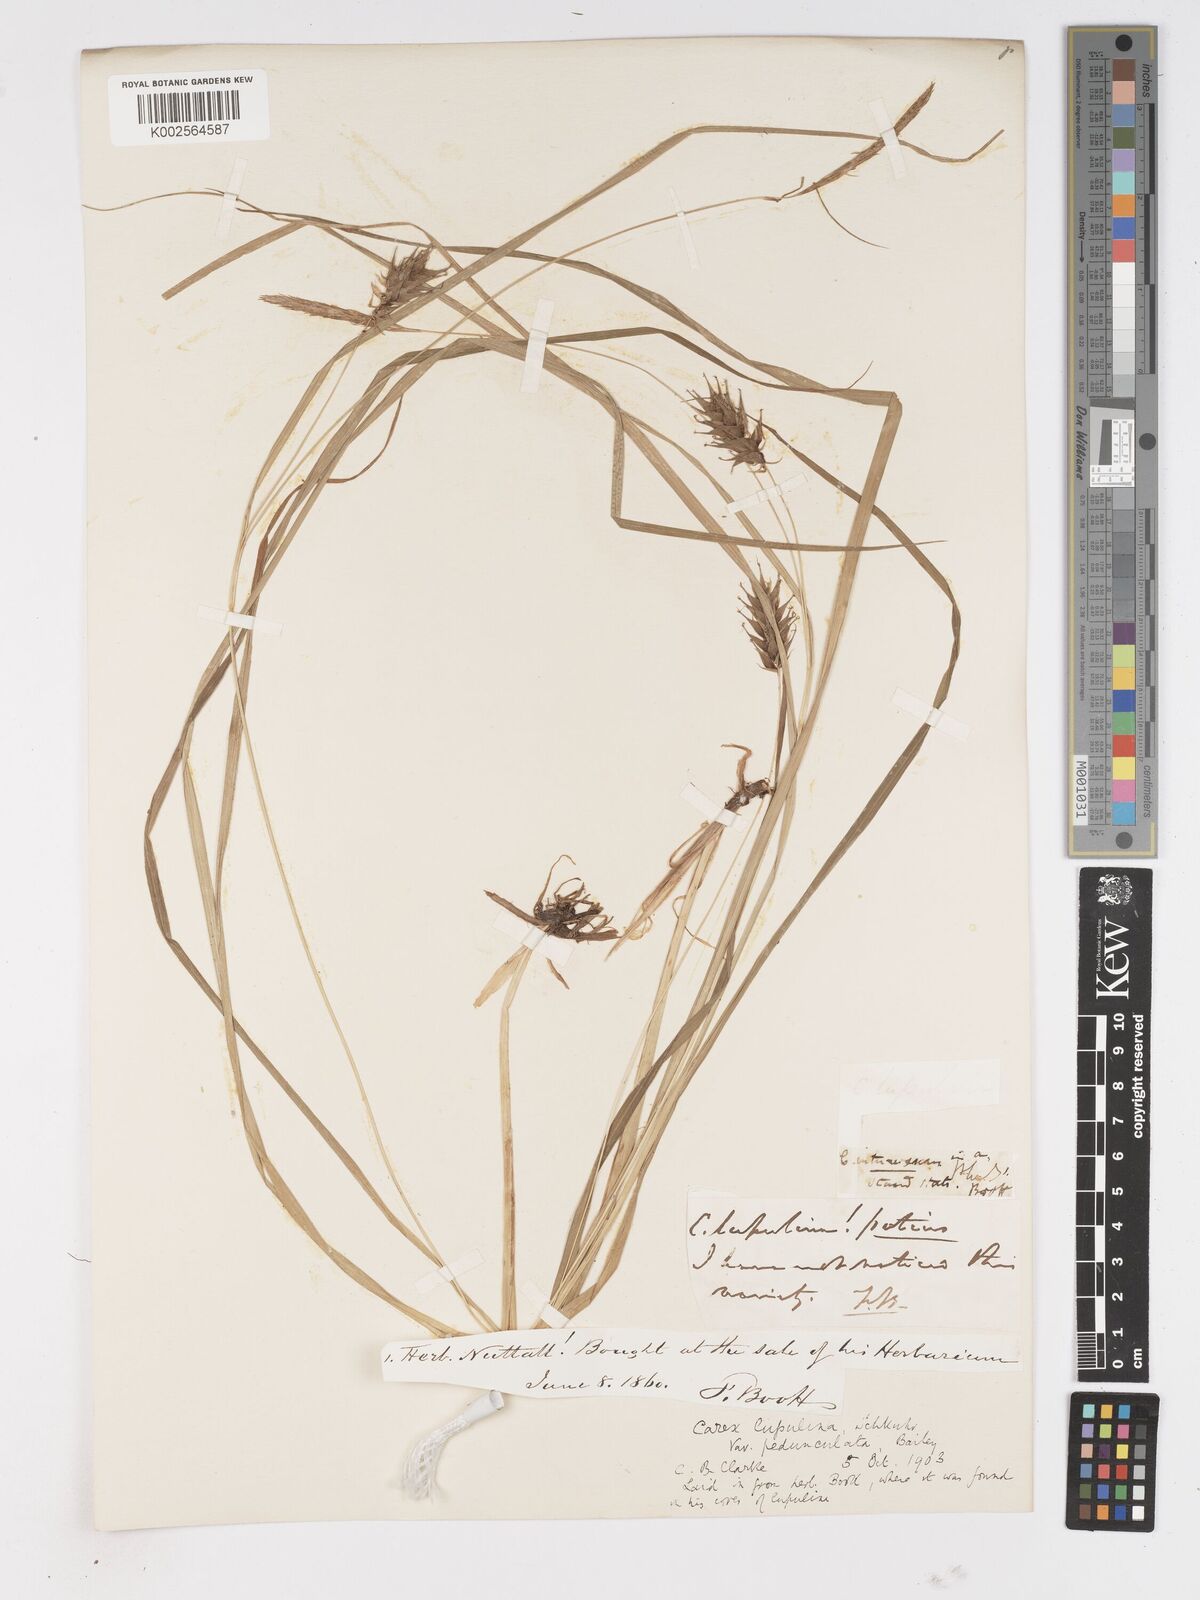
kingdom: Plantae
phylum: Tracheophyta
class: Liliopsida
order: Poales
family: Cyperaceae
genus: Carex
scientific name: Carex lupulina
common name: Hop sedge
